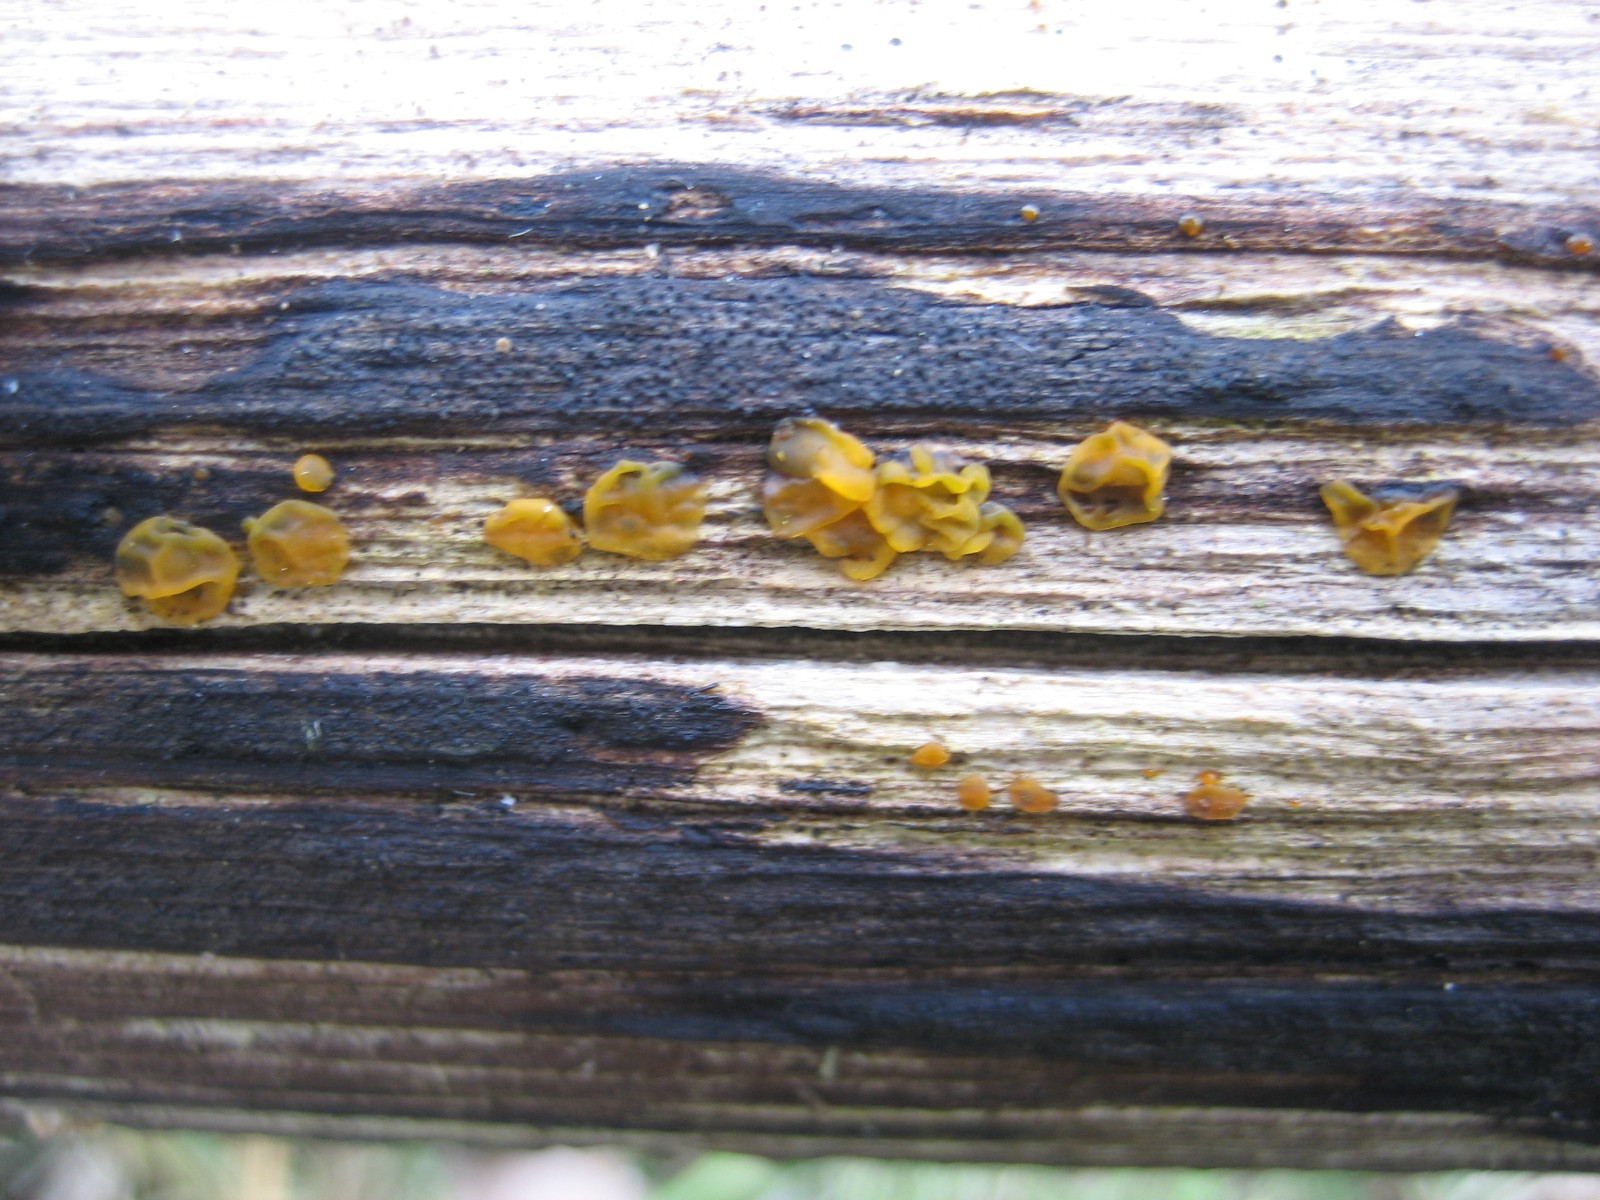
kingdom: Fungi
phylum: Basidiomycota
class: Dacrymycetes
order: Dacrymycetales
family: Dacrymycetaceae
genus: Dacrymyces
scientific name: Dacrymyces lacrymalis
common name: rynket tåresvamp
